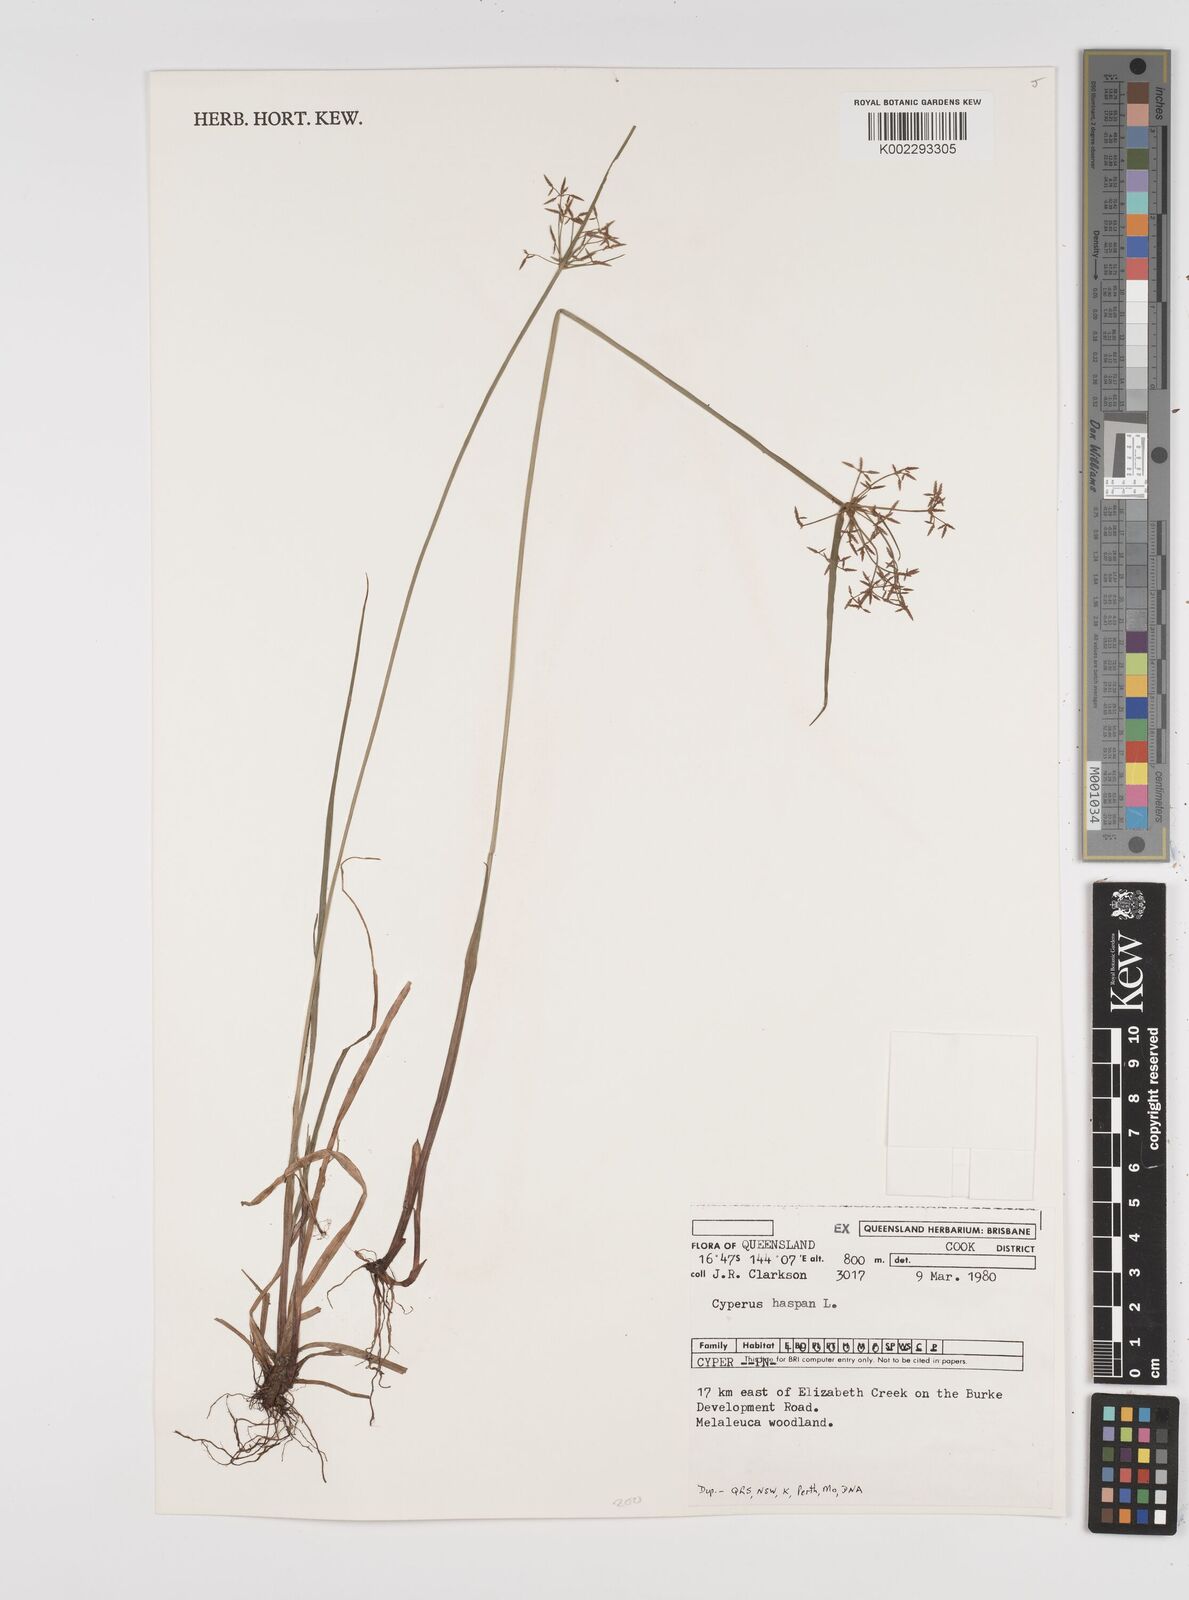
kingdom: Plantae
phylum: Tracheophyta
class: Liliopsida
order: Poales
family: Cyperaceae
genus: Cyperus
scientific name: Cyperus haspan
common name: Haspan flatsedge
